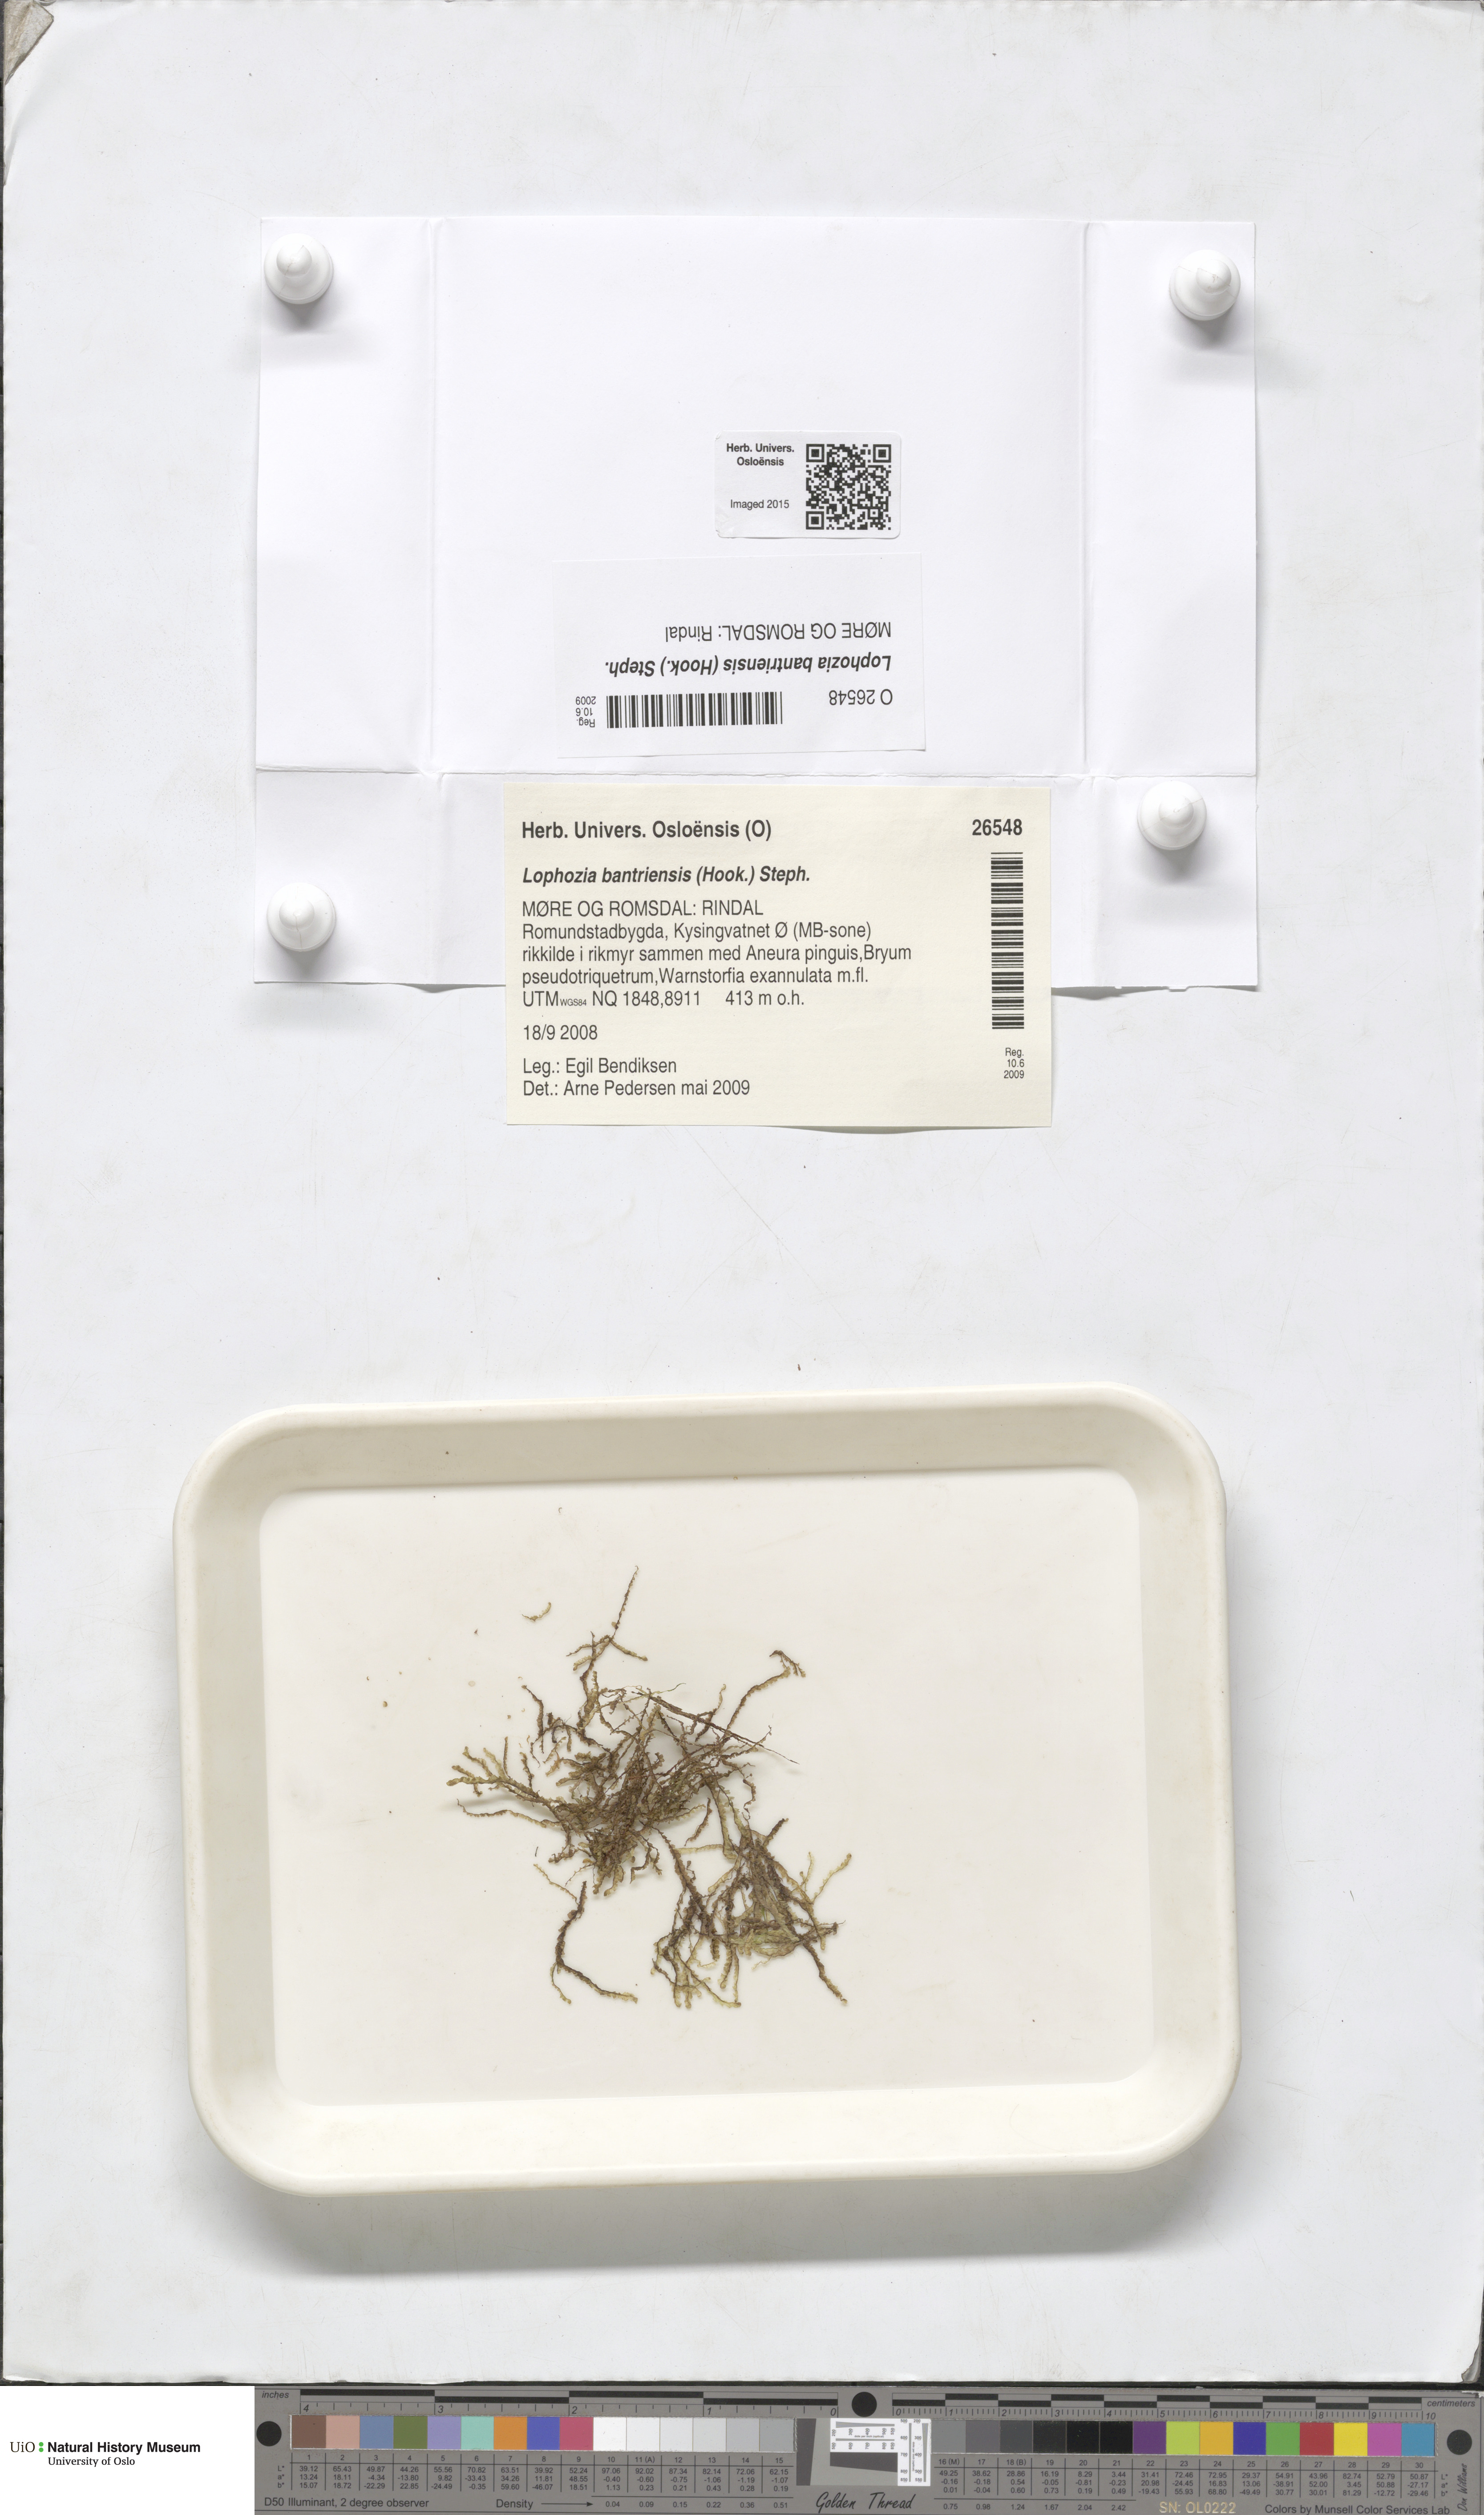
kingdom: Plantae
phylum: Marchantiophyta
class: Jungermanniopsida
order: Jungermanniales
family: Jungermanniaceae
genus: Mesoptychia
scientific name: Mesoptychia bantriensis
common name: Bantry notchwort
